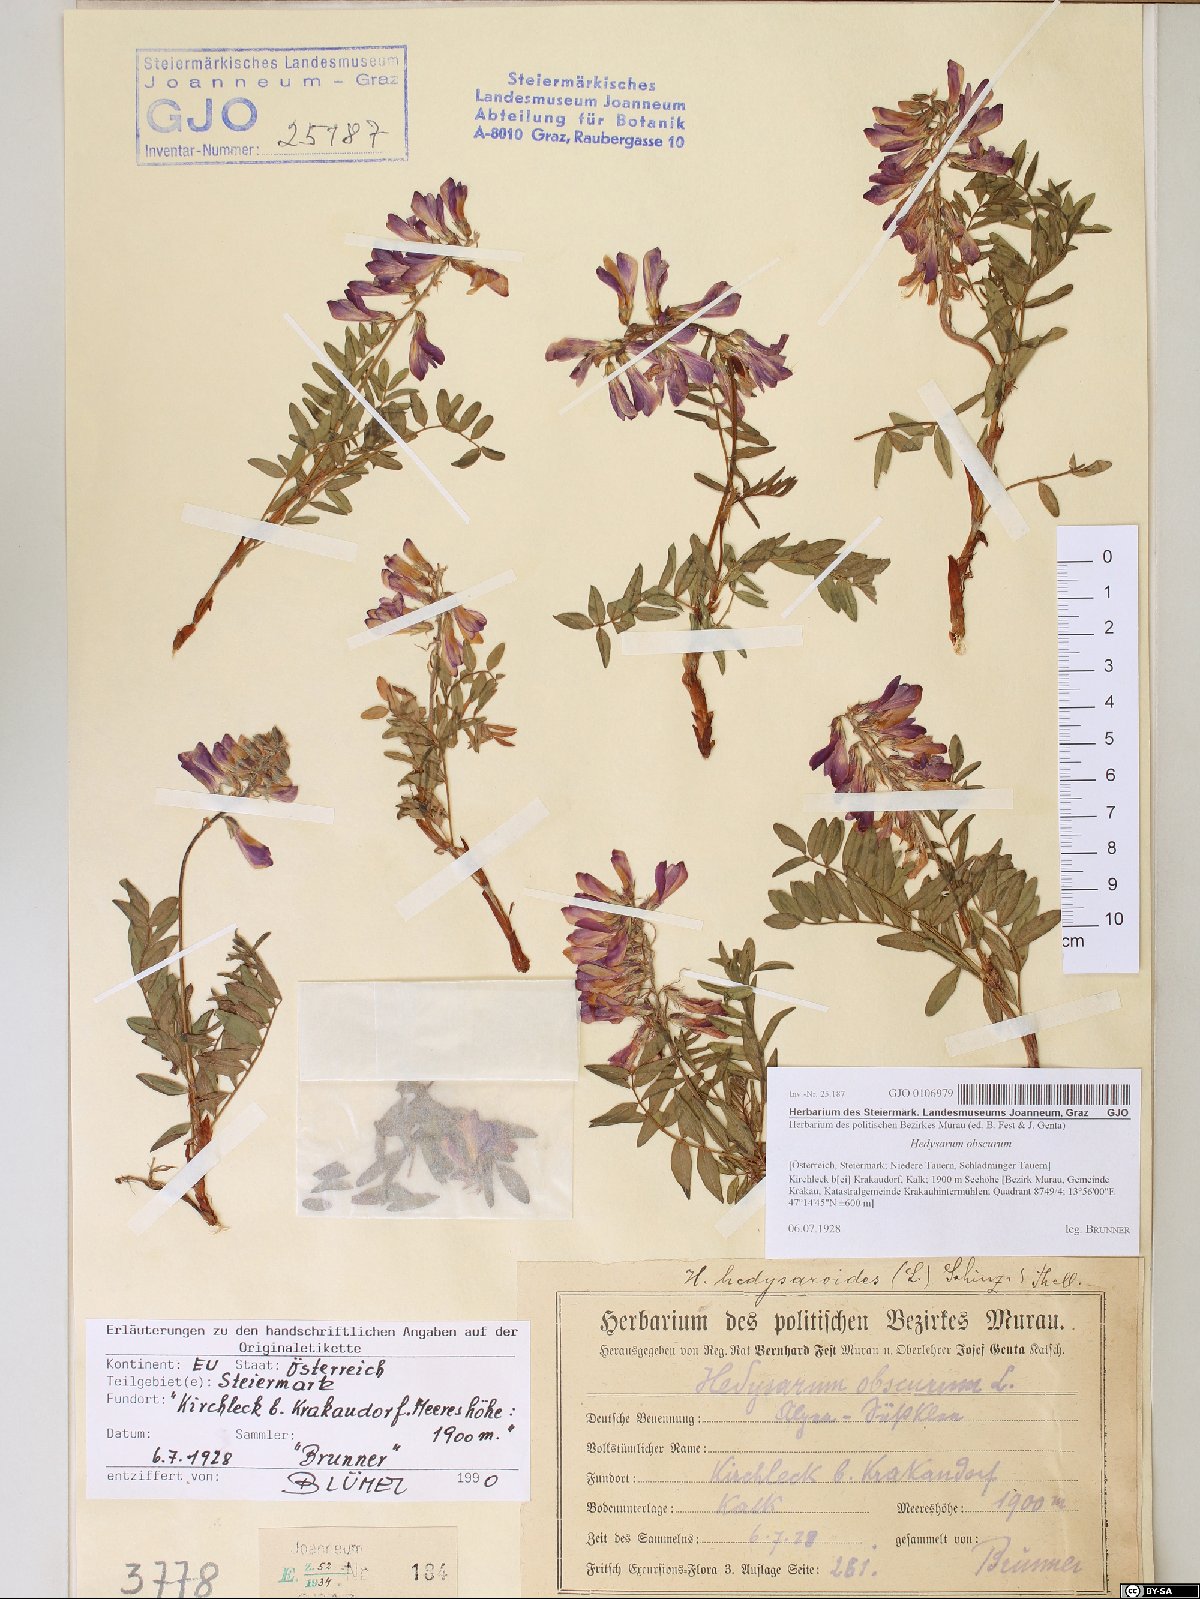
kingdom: Plantae
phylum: Tracheophyta
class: Magnoliopsida
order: Fabales
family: Fabaceae
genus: Hedysarum
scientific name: Hedysarum hedysaroides
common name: Alpine french-honeysuckle
